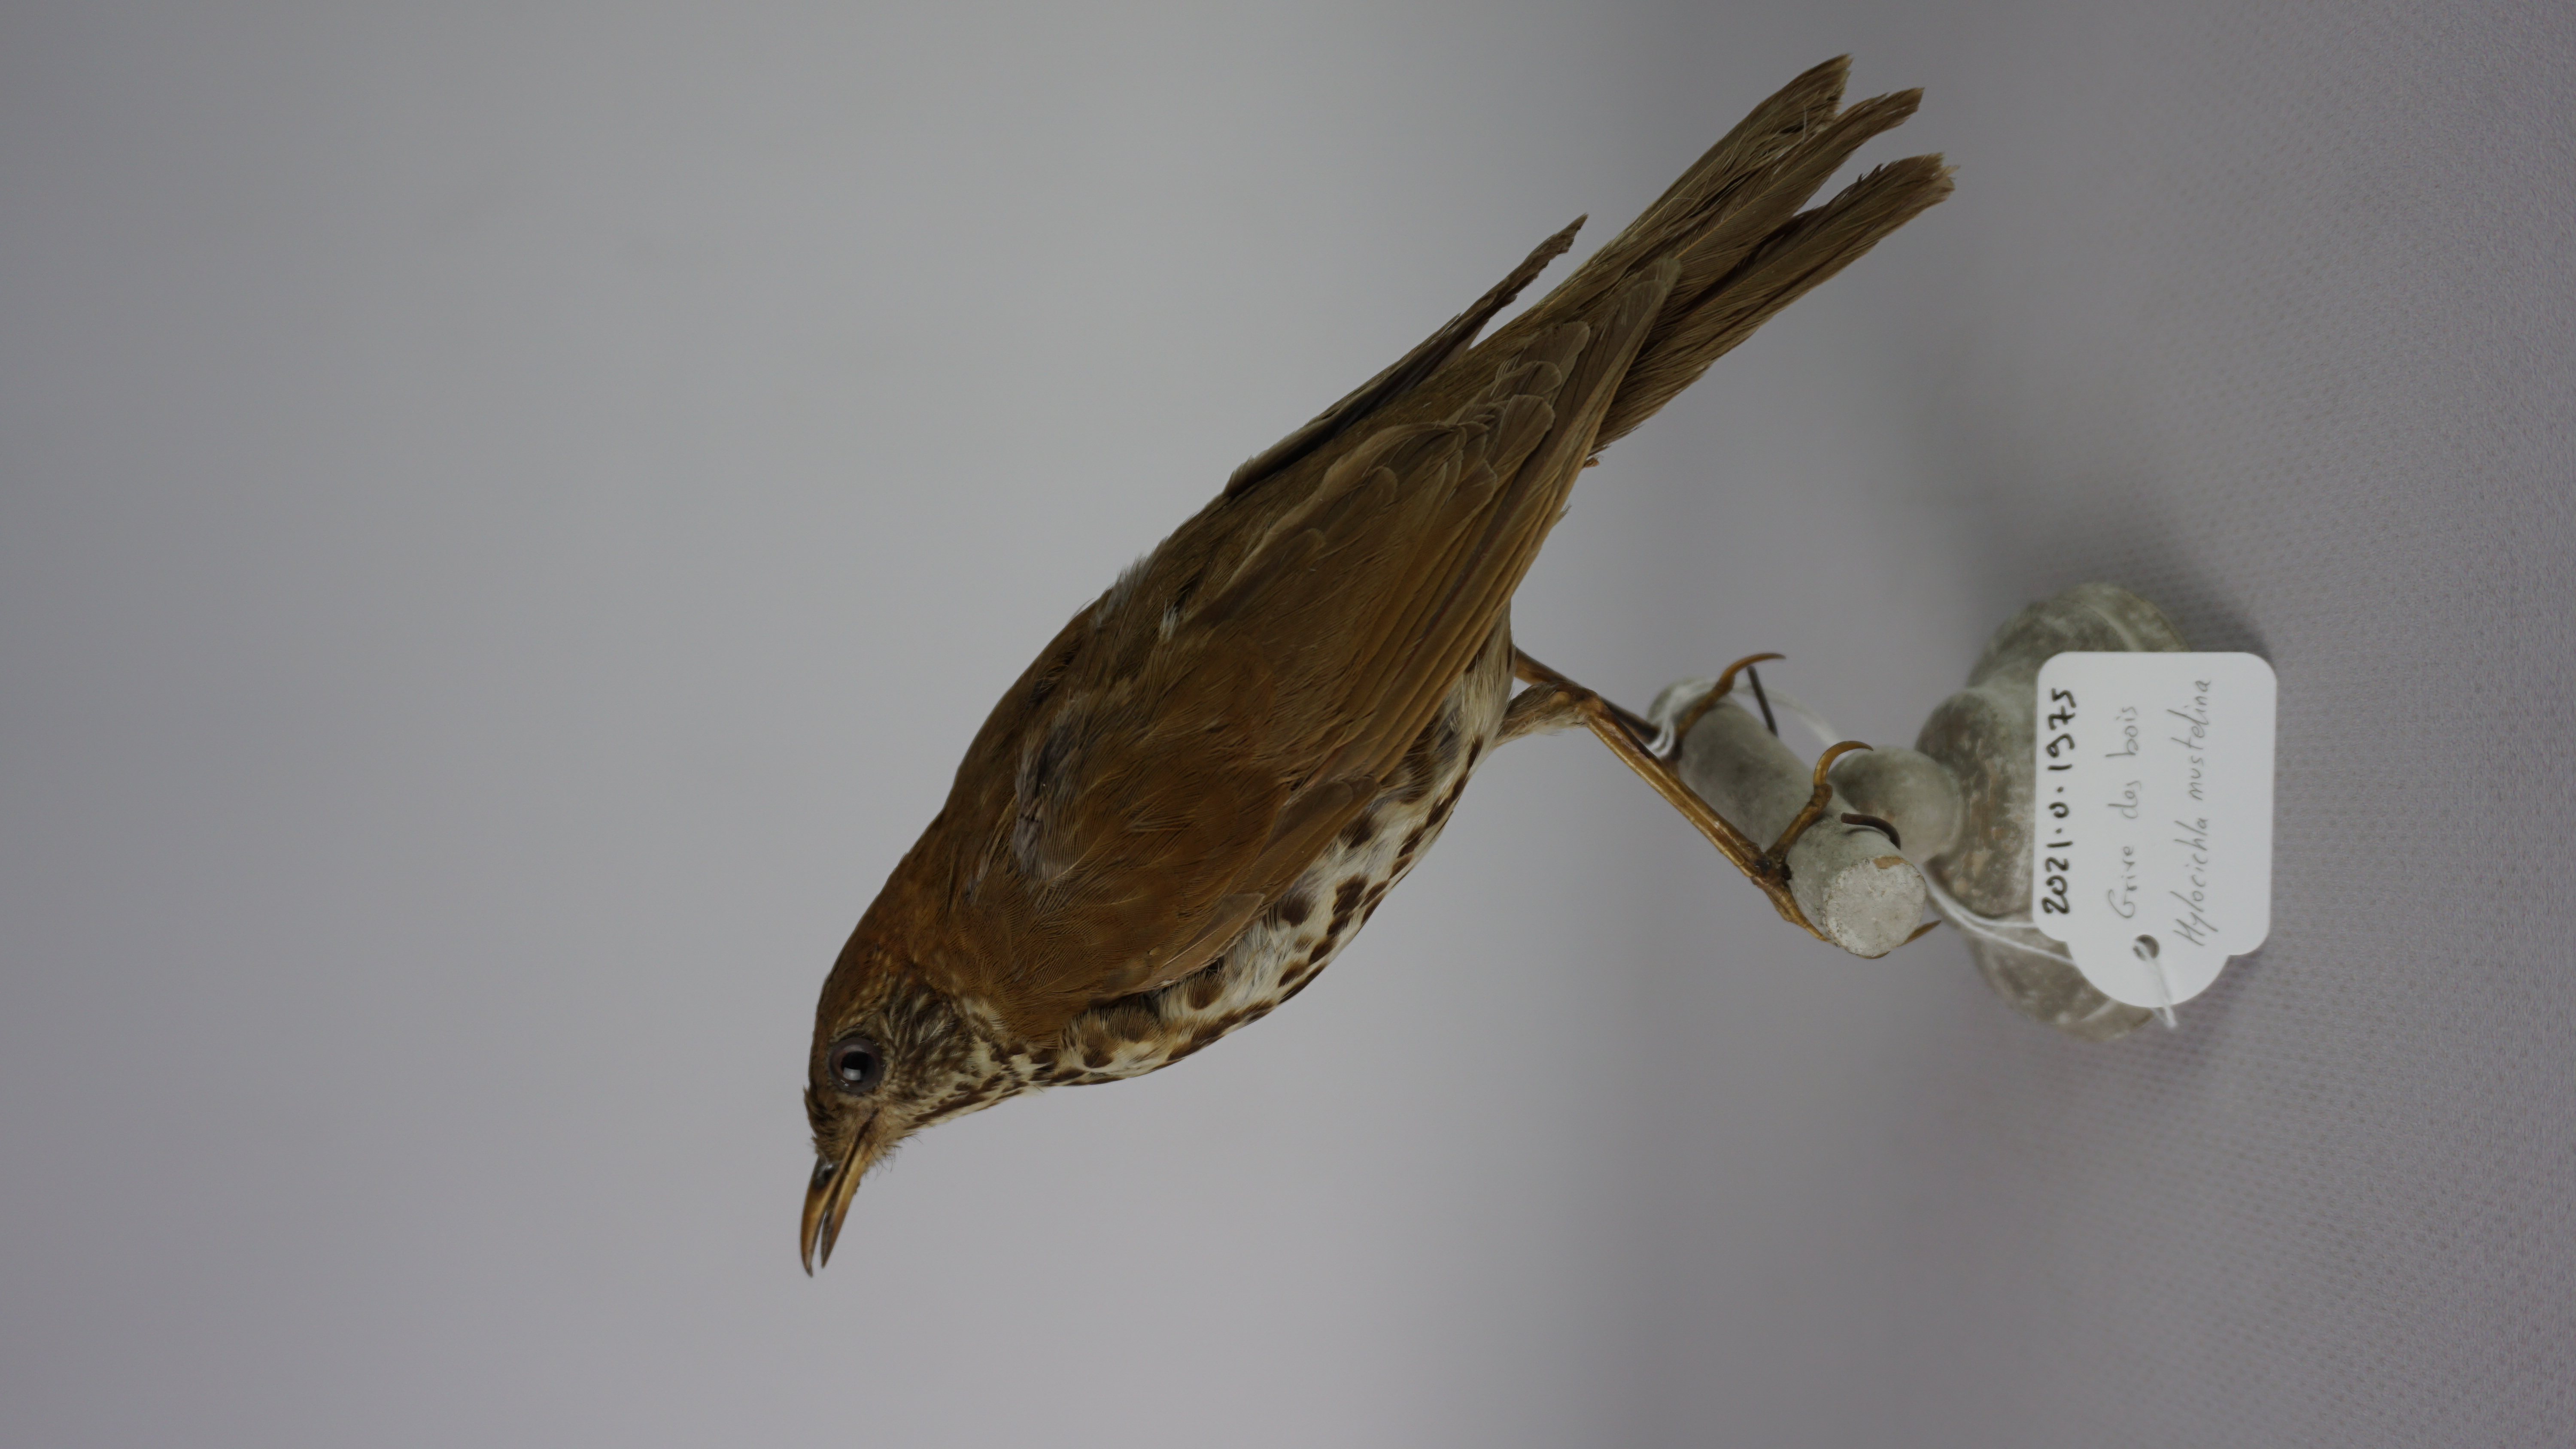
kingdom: Animalia
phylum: Chordata
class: Aves
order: Passeriformes
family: Turdidae
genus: Hylocichla
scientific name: Hylocichla mustelina
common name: Wood thrush
